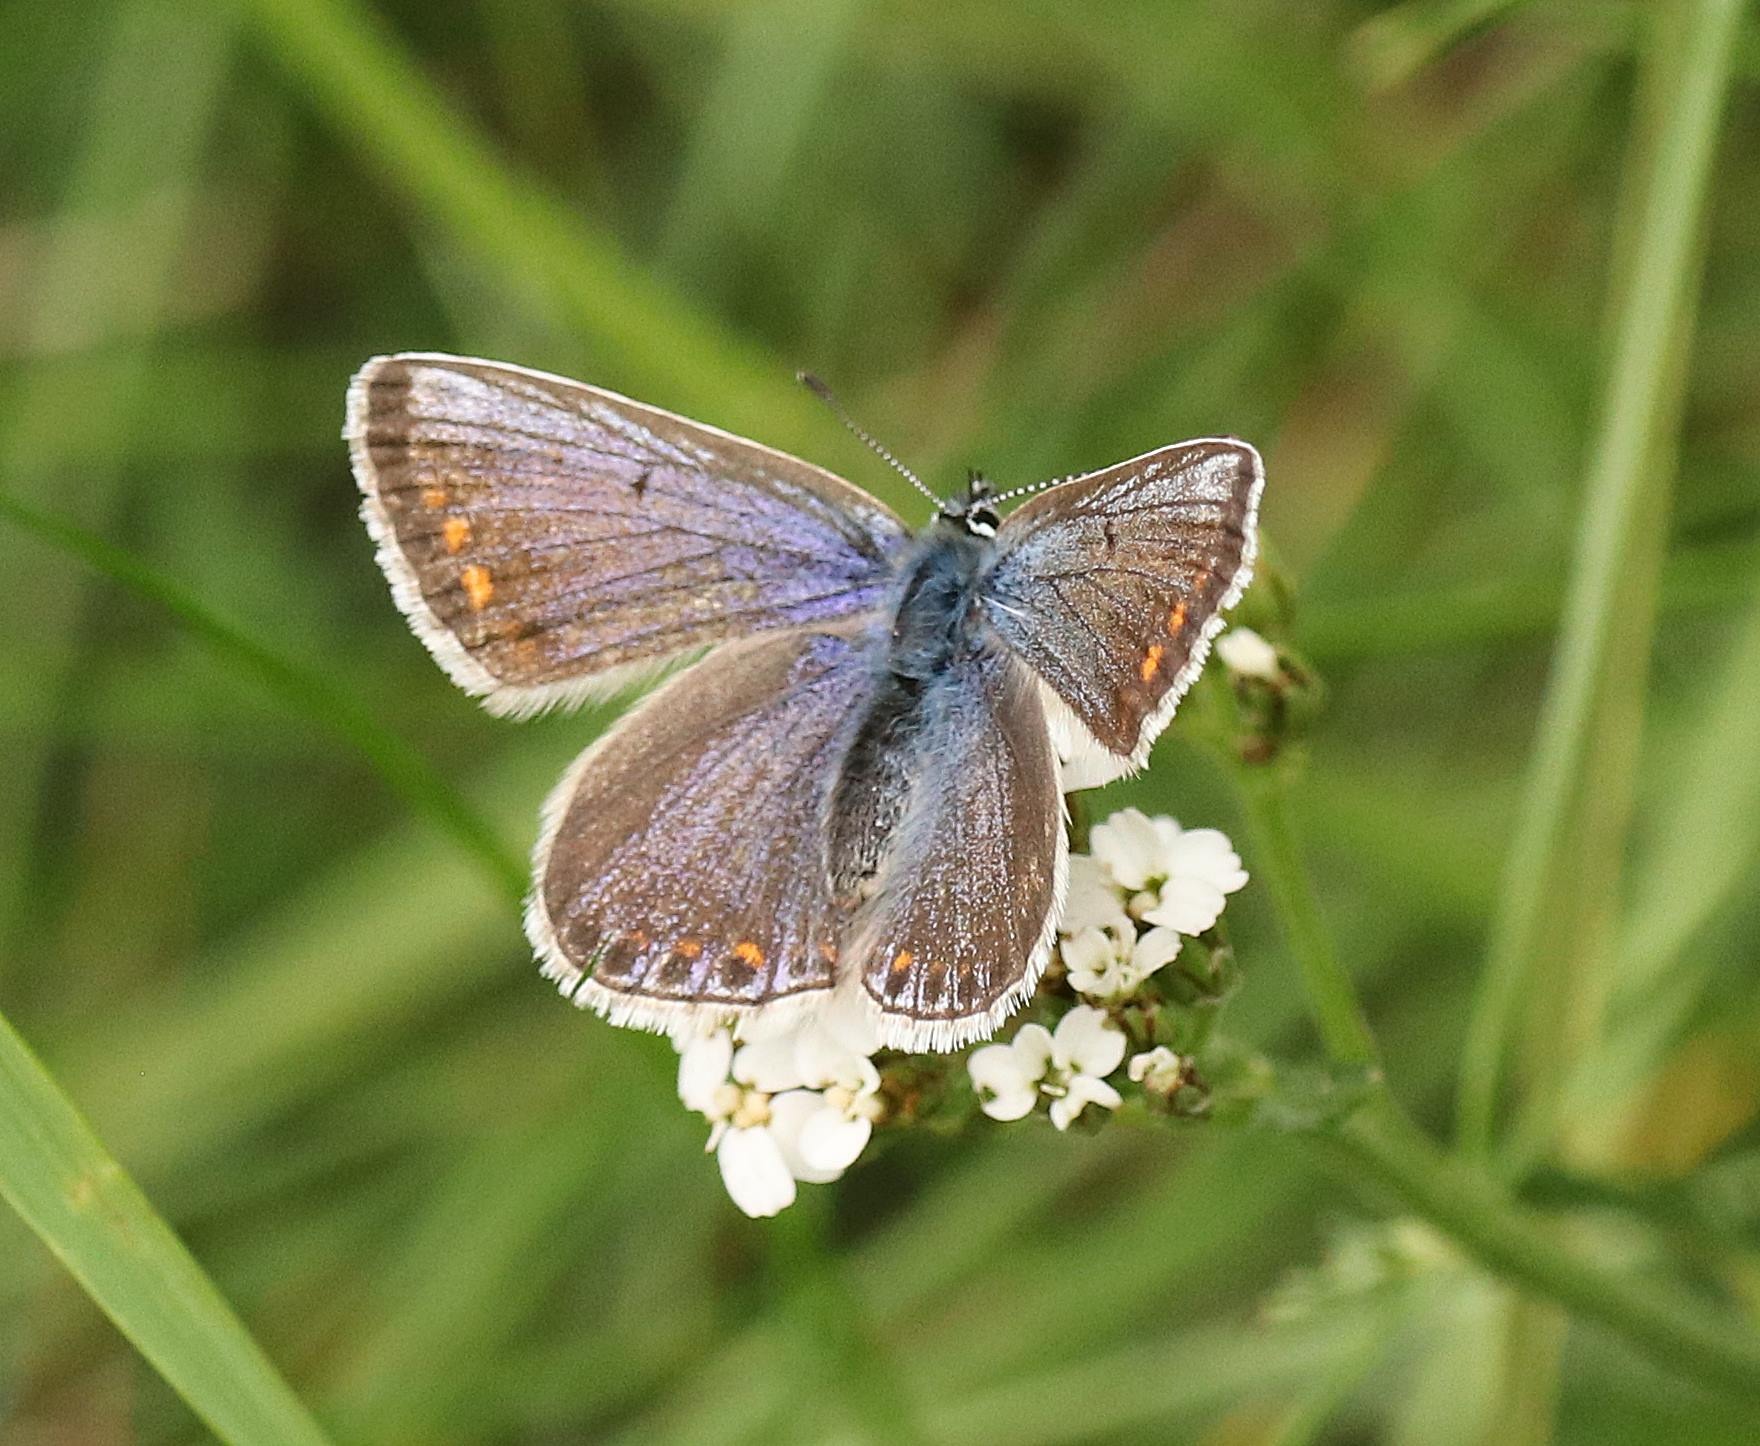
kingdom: Animalia
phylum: Arthropoda
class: Insecta
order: Lepidoptera
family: Lycaenidae
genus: Polyommatus
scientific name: Polyommatus icarus
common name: Almindelig blåfugl
